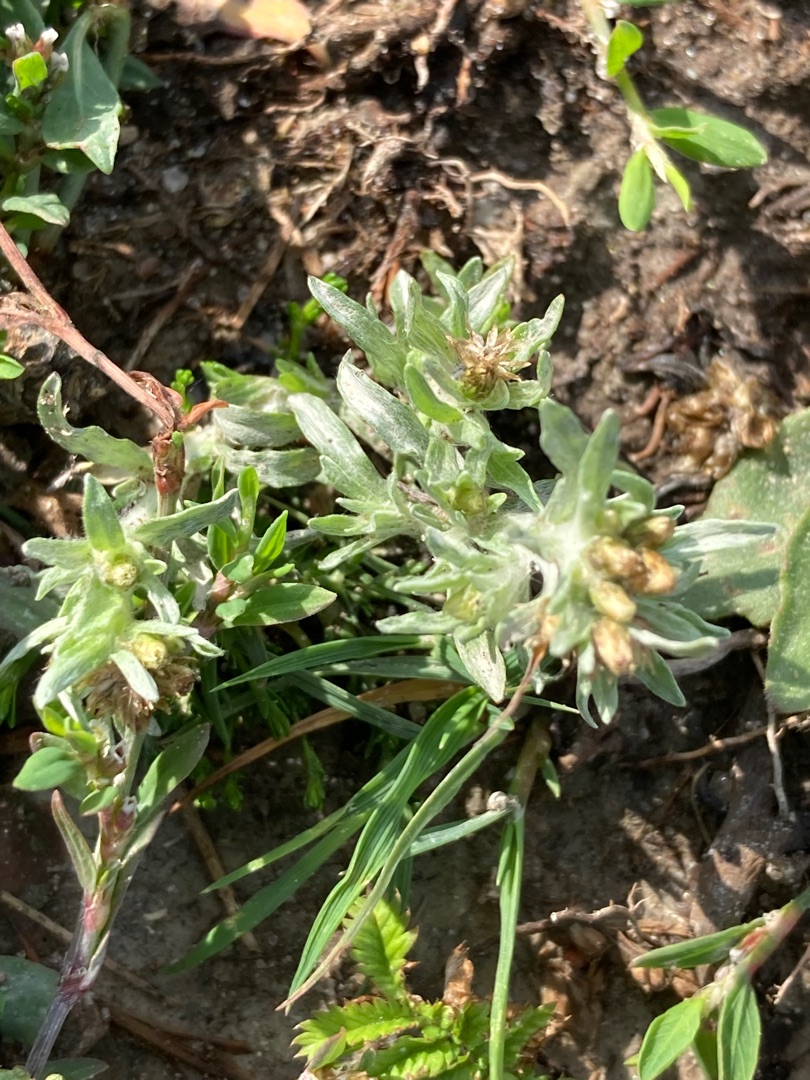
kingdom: Plantae
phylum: Tracheophyta
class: Magnoliopsida
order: Asterales
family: Asteraceae
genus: Gnaphalium
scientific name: Gnaphalium uliginosum
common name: Sump-evighedsblomst
